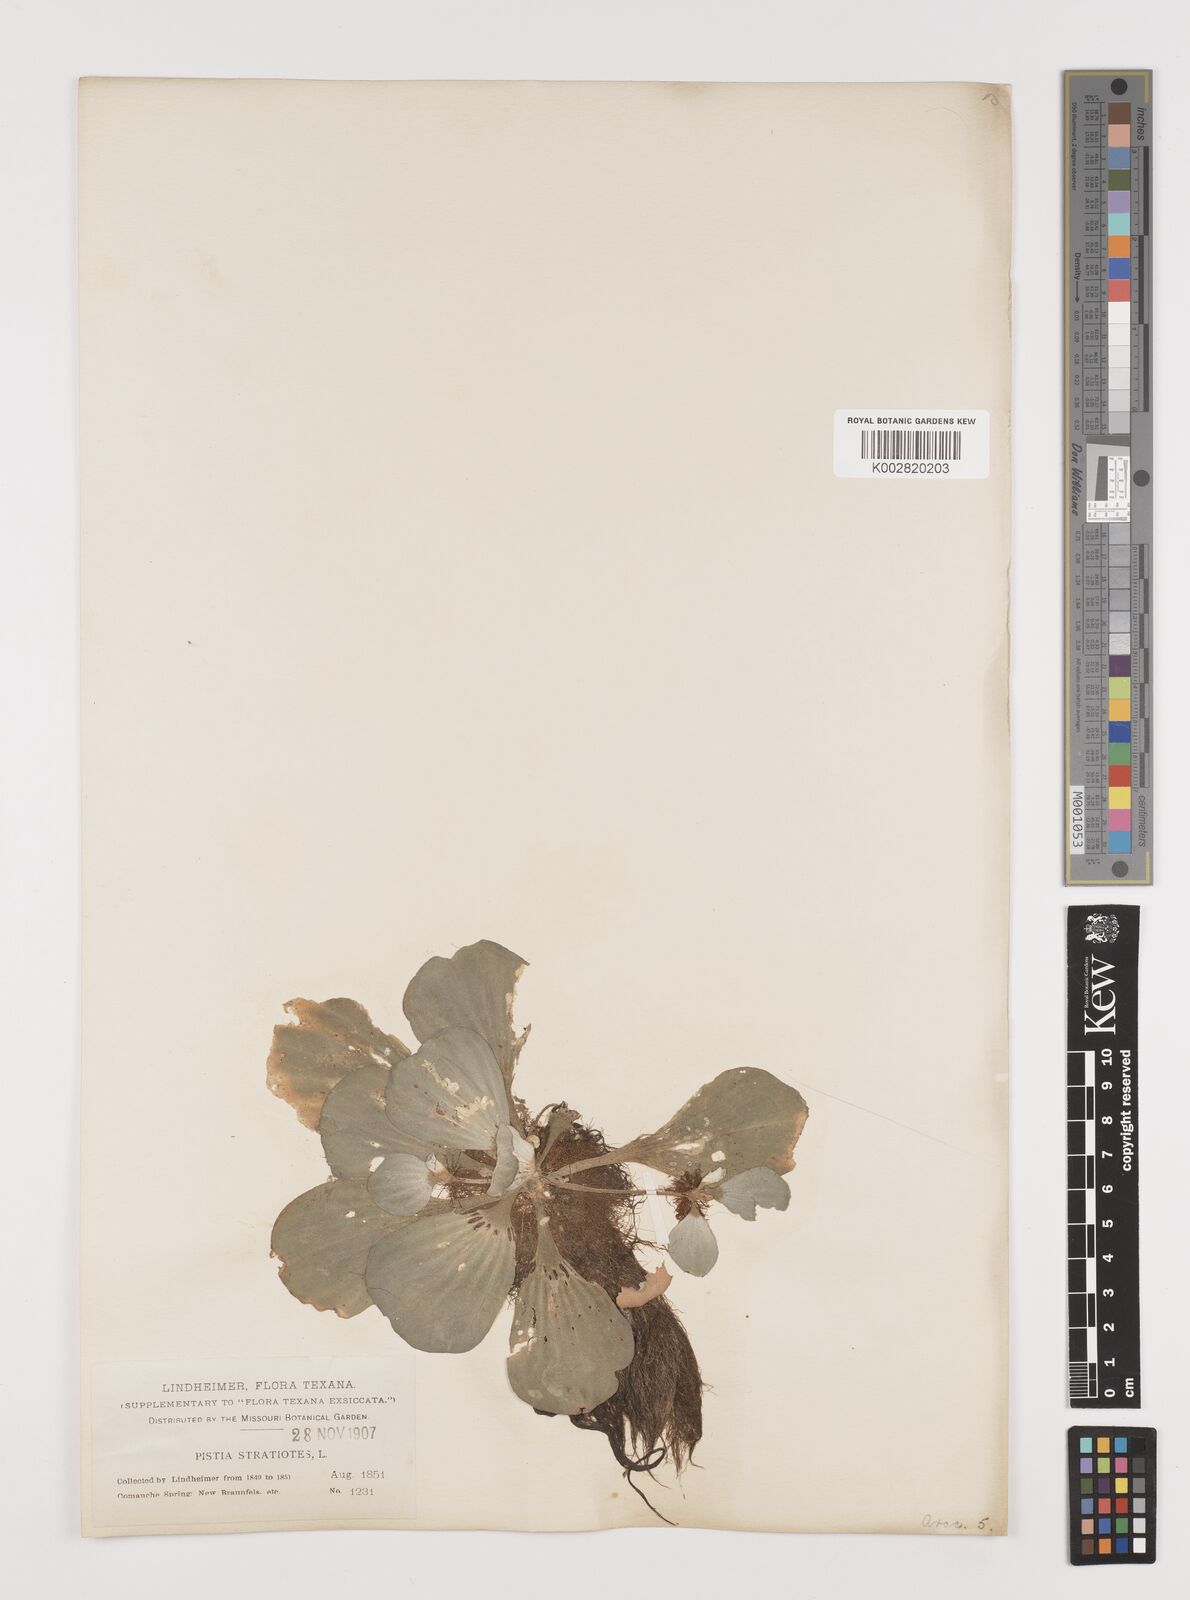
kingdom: Plantae
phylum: Tracheophyta
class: Liliopsida
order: Alismatales
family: Araceae
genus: Pistia
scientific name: Pistia stratiotes
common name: Water lettuce
